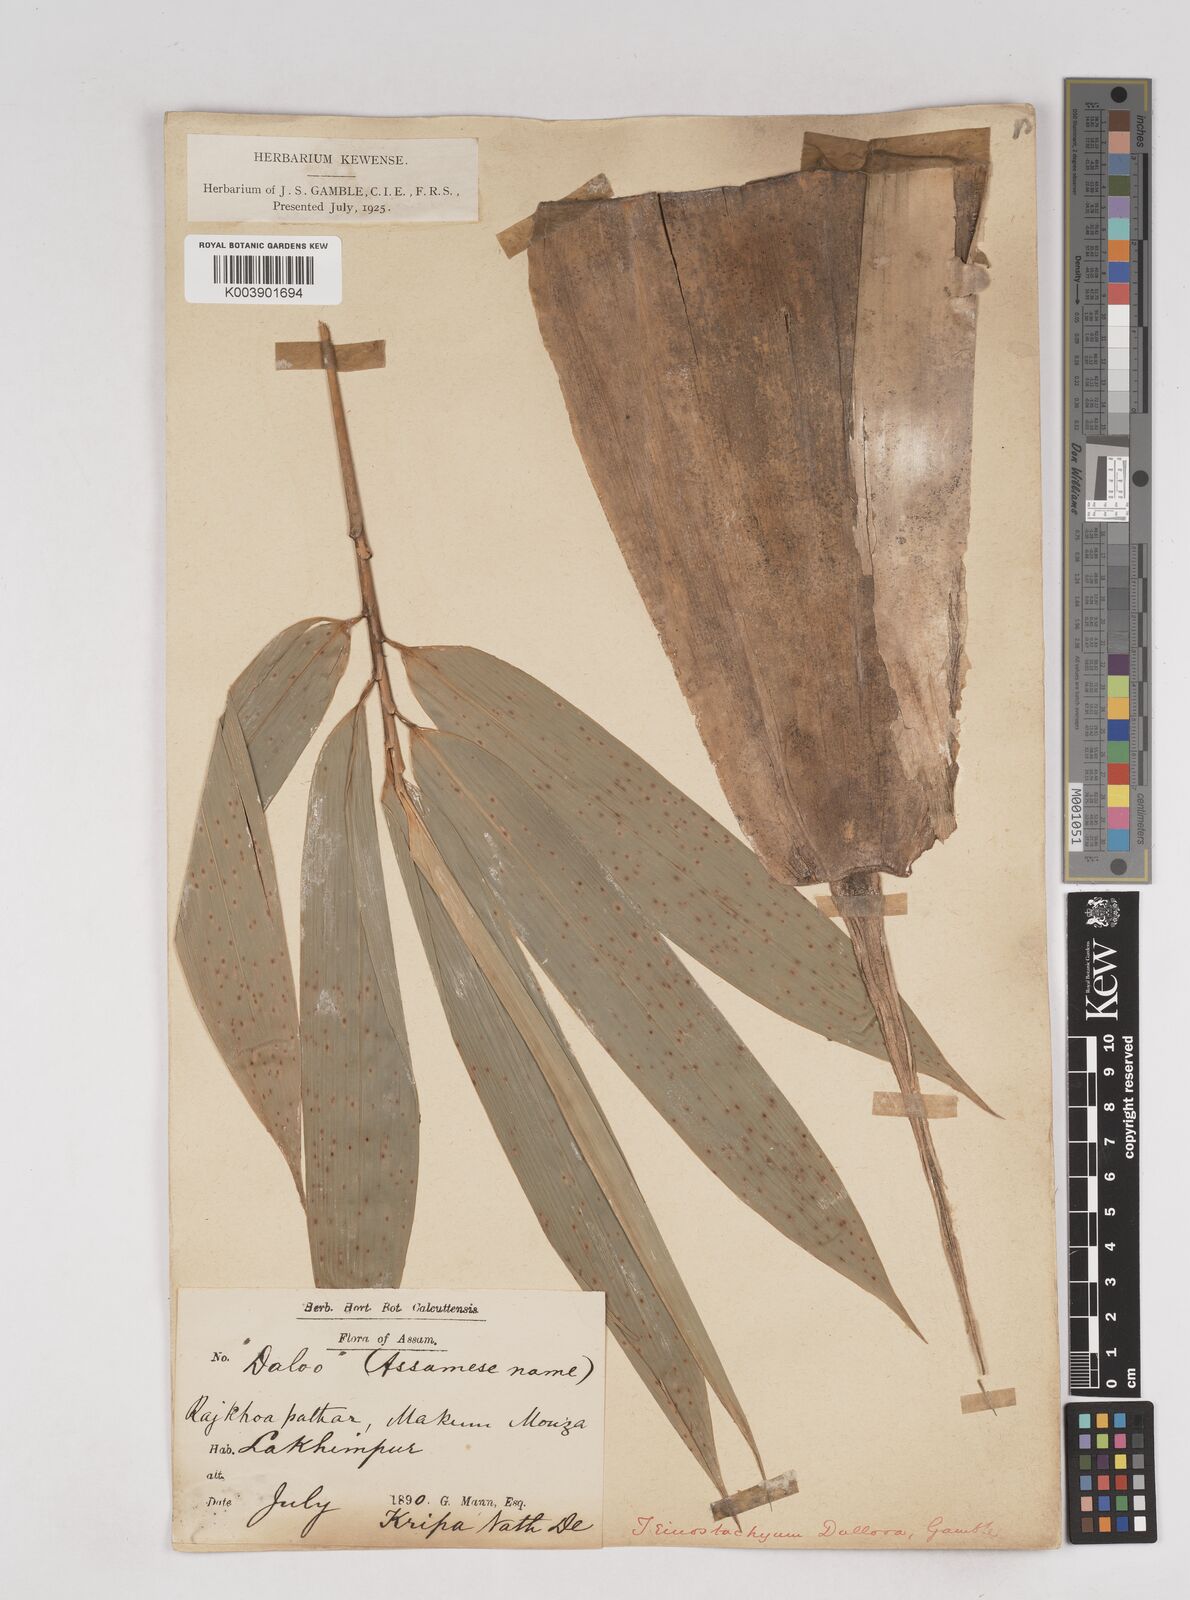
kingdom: Plantae
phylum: Tracheophyta
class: Liliopsida
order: Poales
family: Poaceae
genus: Schizostachyum
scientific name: Schizostachyum dullooa
